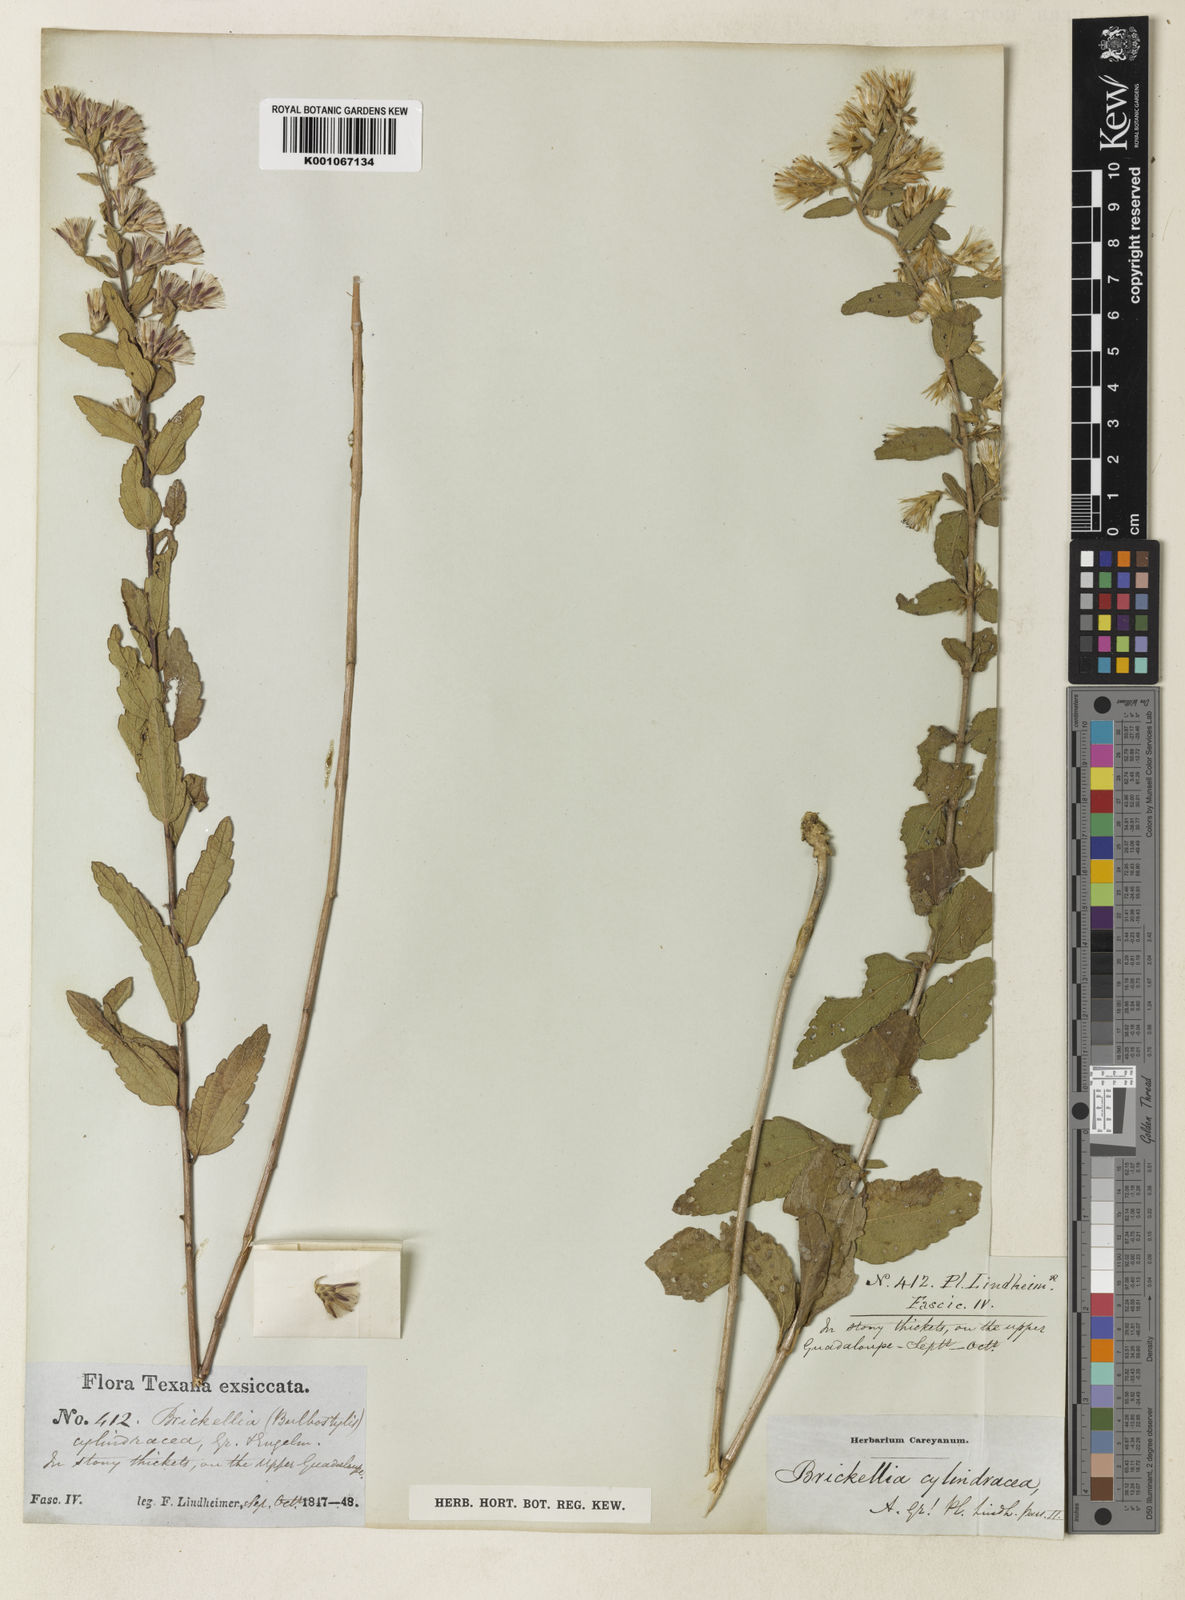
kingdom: Plantae
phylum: Tracheophyta
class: Magnoliopsida
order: Asterales
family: Asteraceae
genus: Brickellia
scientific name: Brickellia cylindracea
